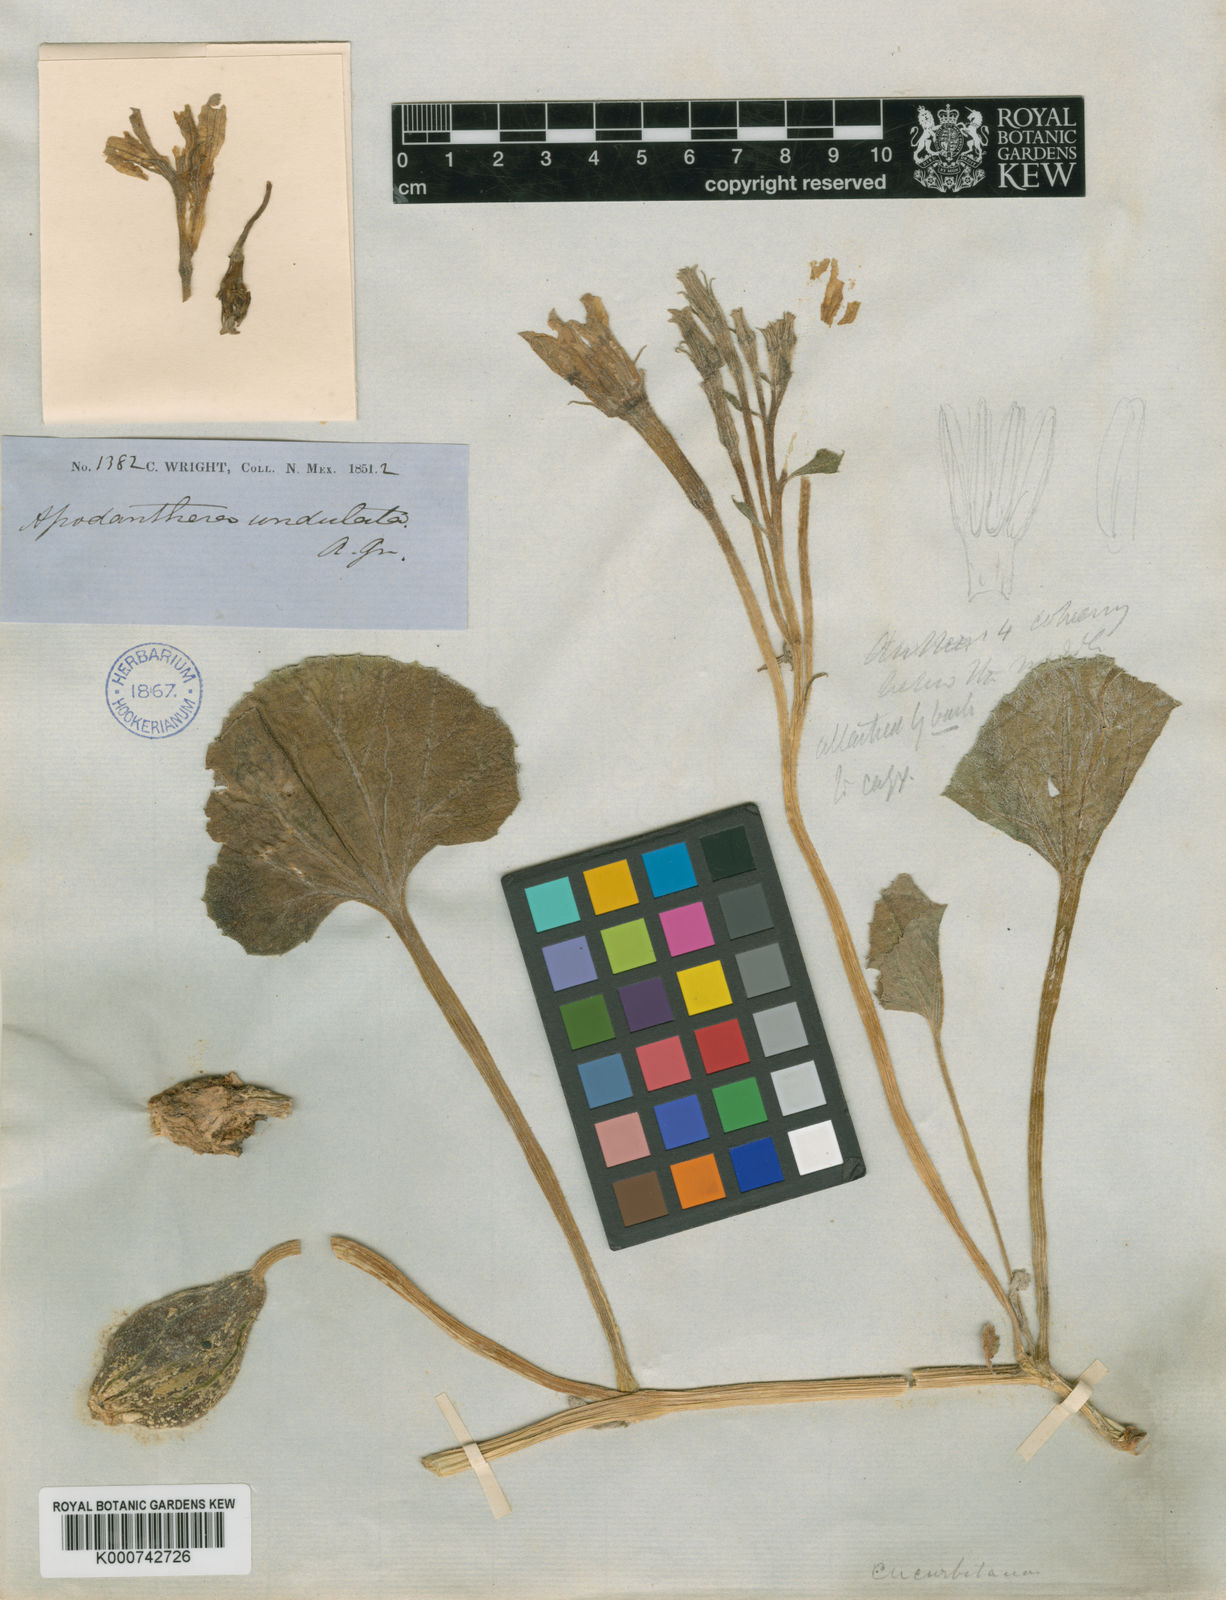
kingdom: Plantae
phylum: Tracheophyta
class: Magnoliopsida
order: Cucurbitales
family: Cucurbitaceae
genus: Apodanthera
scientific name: Apodanthera undulata
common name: Melon-loco
